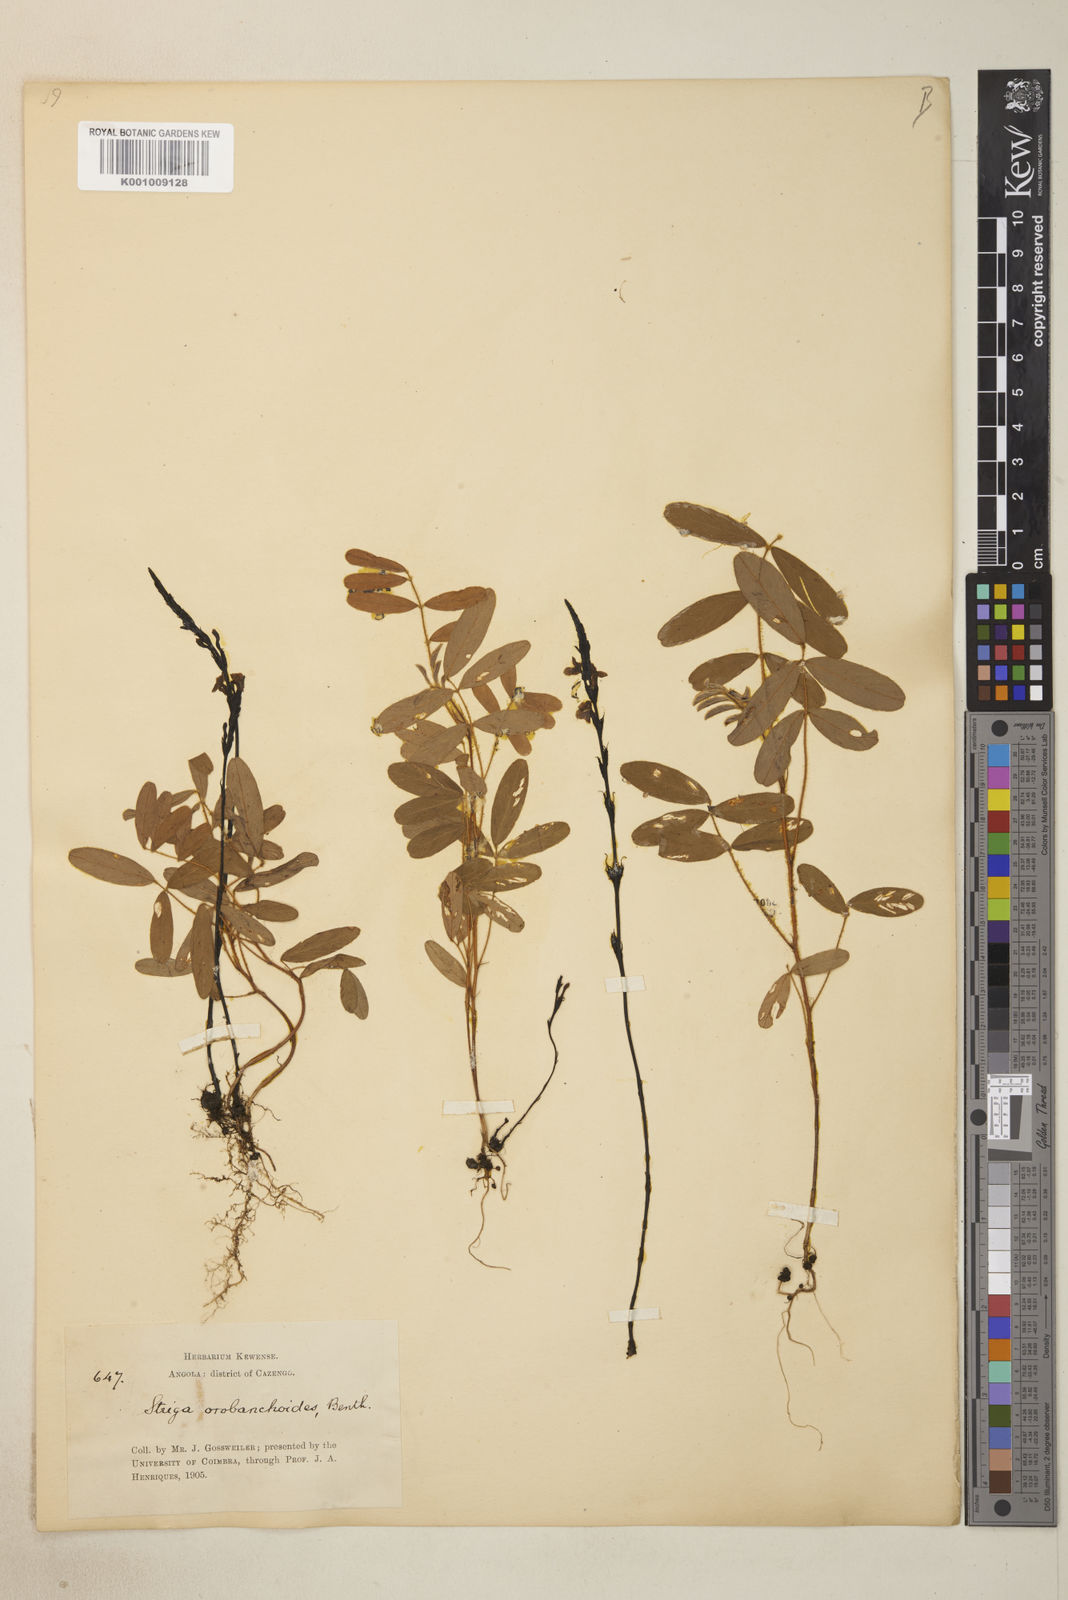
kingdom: Plantae
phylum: Tracheophyta
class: Magnoliopsida
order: Lamiales
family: Orobanchaceae
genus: Striga
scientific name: Striga gesnerioides
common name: Cowpea witchweed
